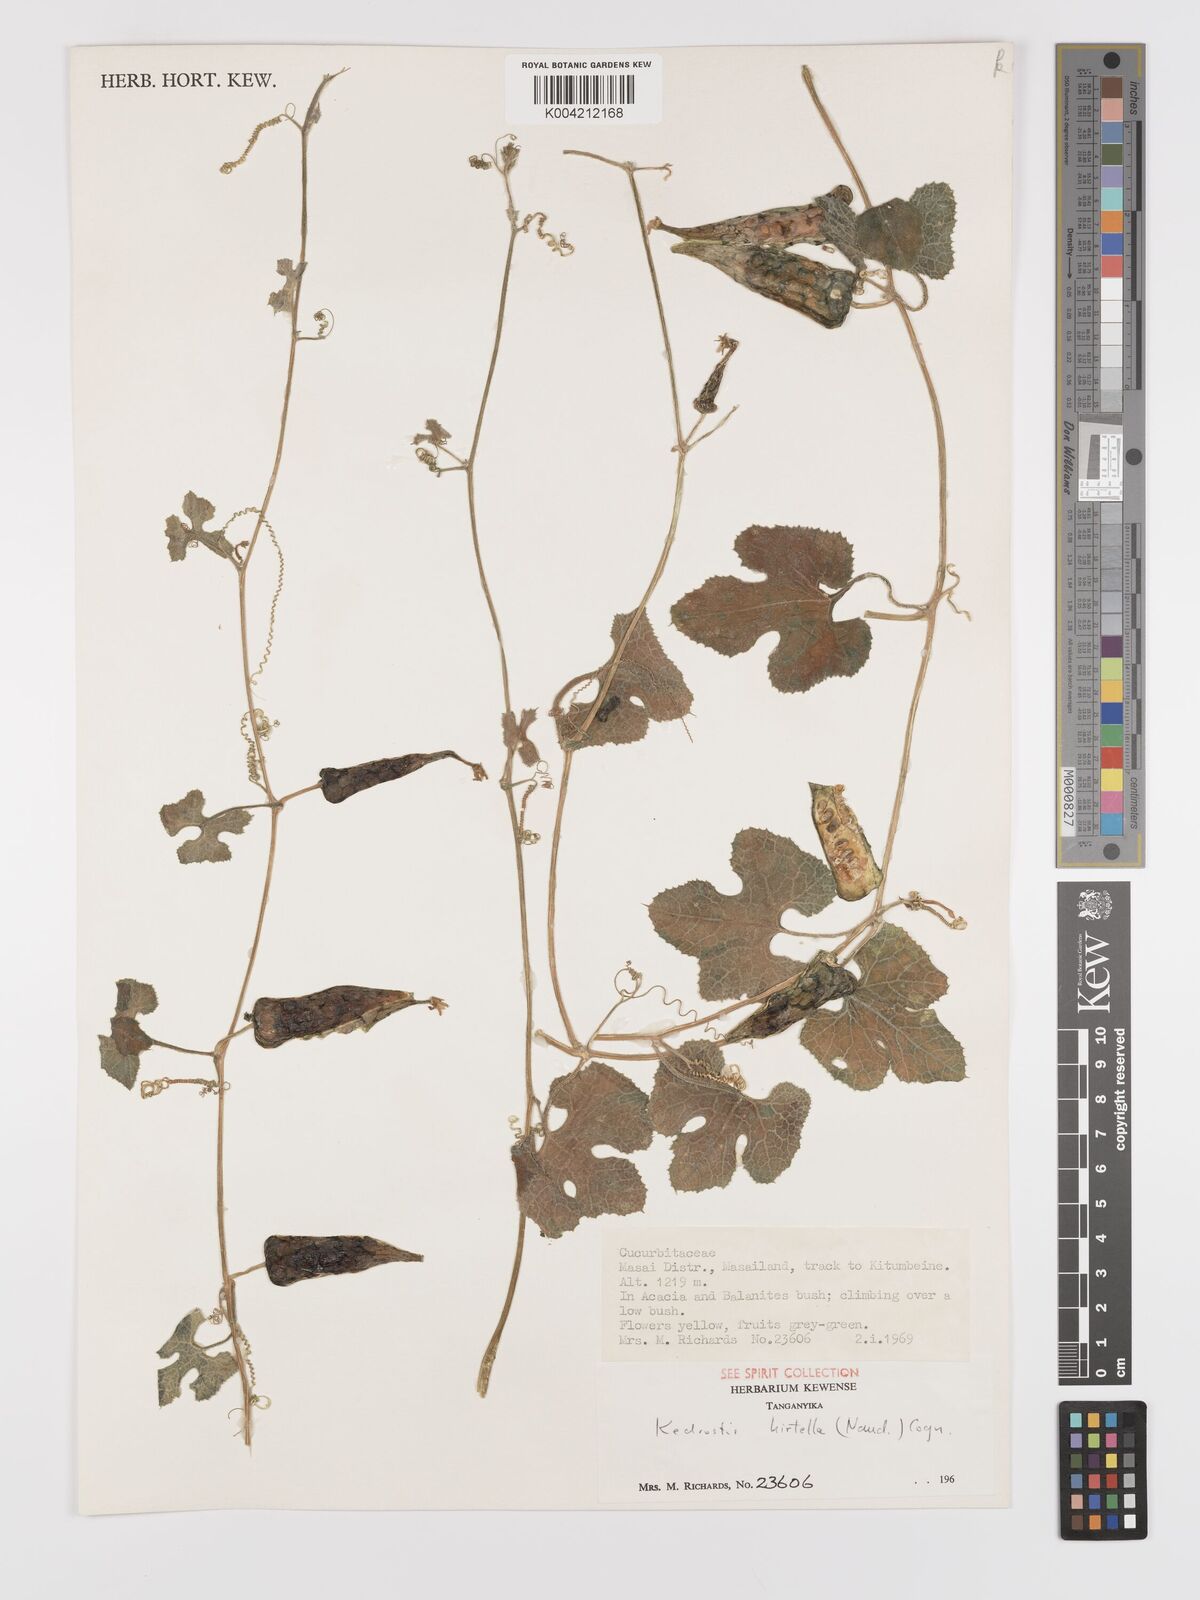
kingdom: Plantae
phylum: Tracheophyta
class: Magnoliopsida
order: Cucurbitales
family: Cucurbitaceae
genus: Kedrostis
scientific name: Kedrostis leloja
